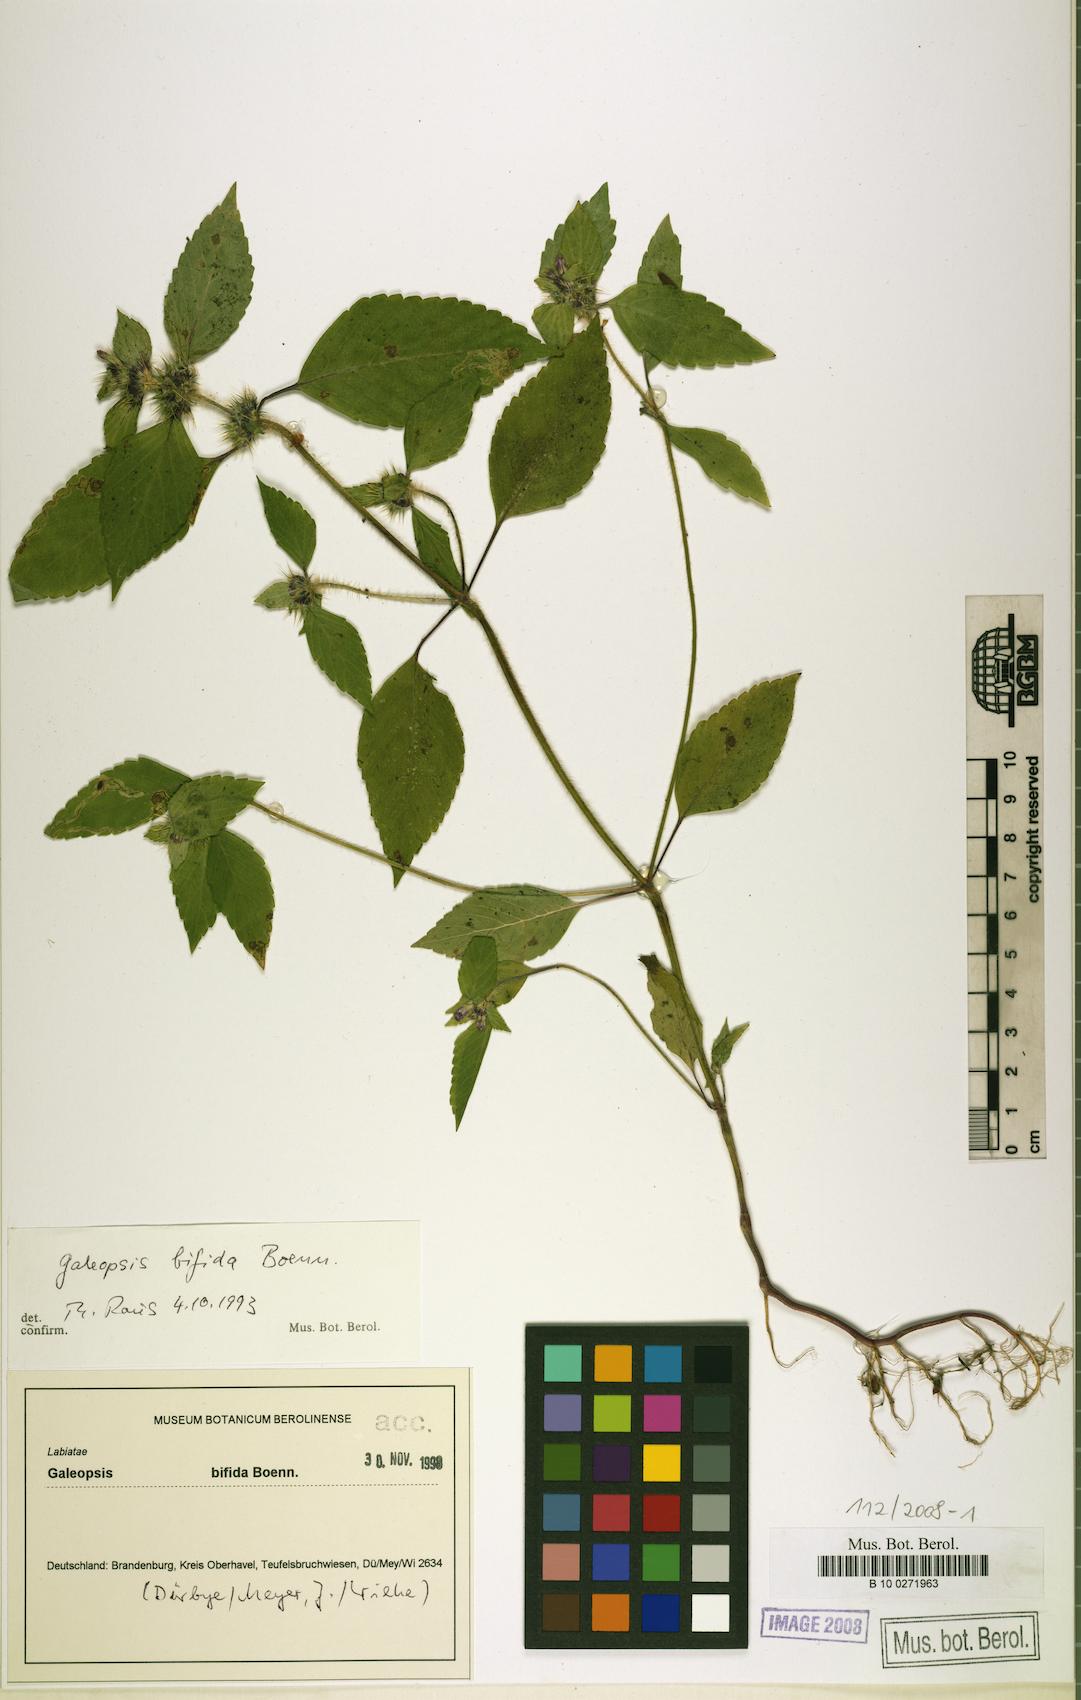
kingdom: Plantae
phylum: Tracheophyta
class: Magnoliopsida
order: Lamiales
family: Lamiaceae
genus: Galeopsis
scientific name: Galeopsis bifida
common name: Bifid hemp-nettle
